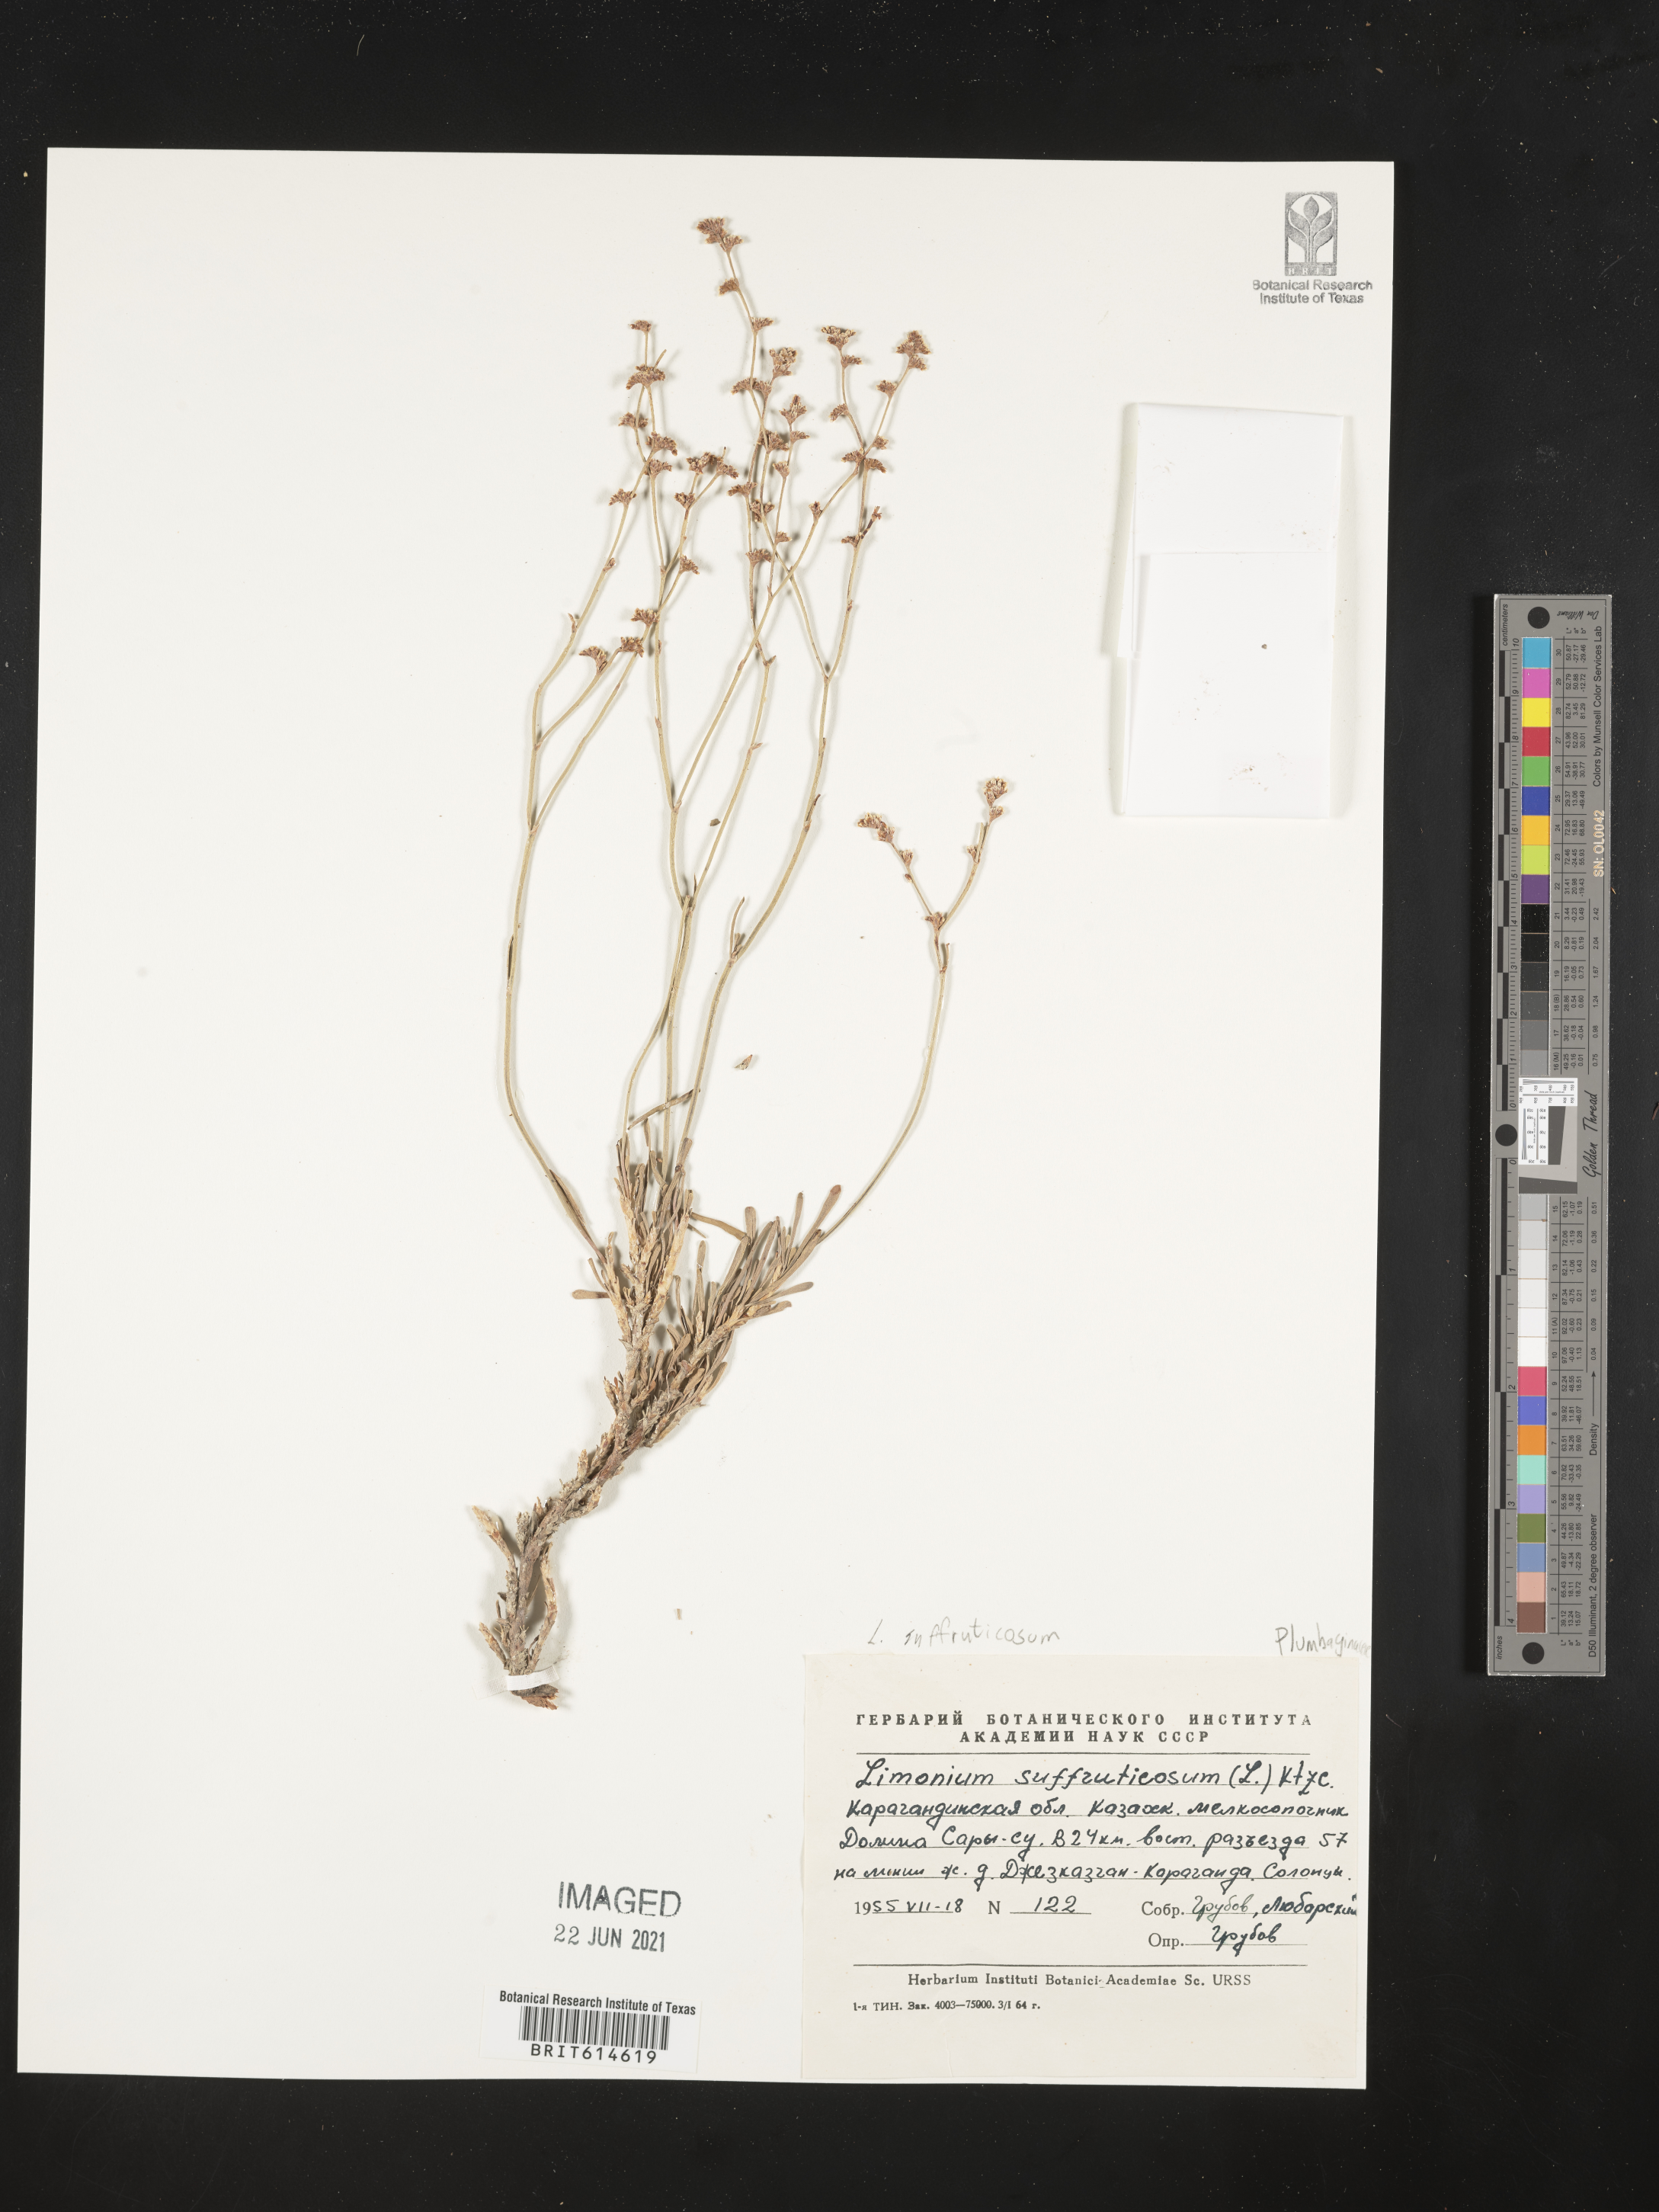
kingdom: Plantae
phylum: Tracheophyta
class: Magnoliopsida
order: Caryophyllales
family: Plumbaginaceae
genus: Limonium
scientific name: Limonium suffruticosum
